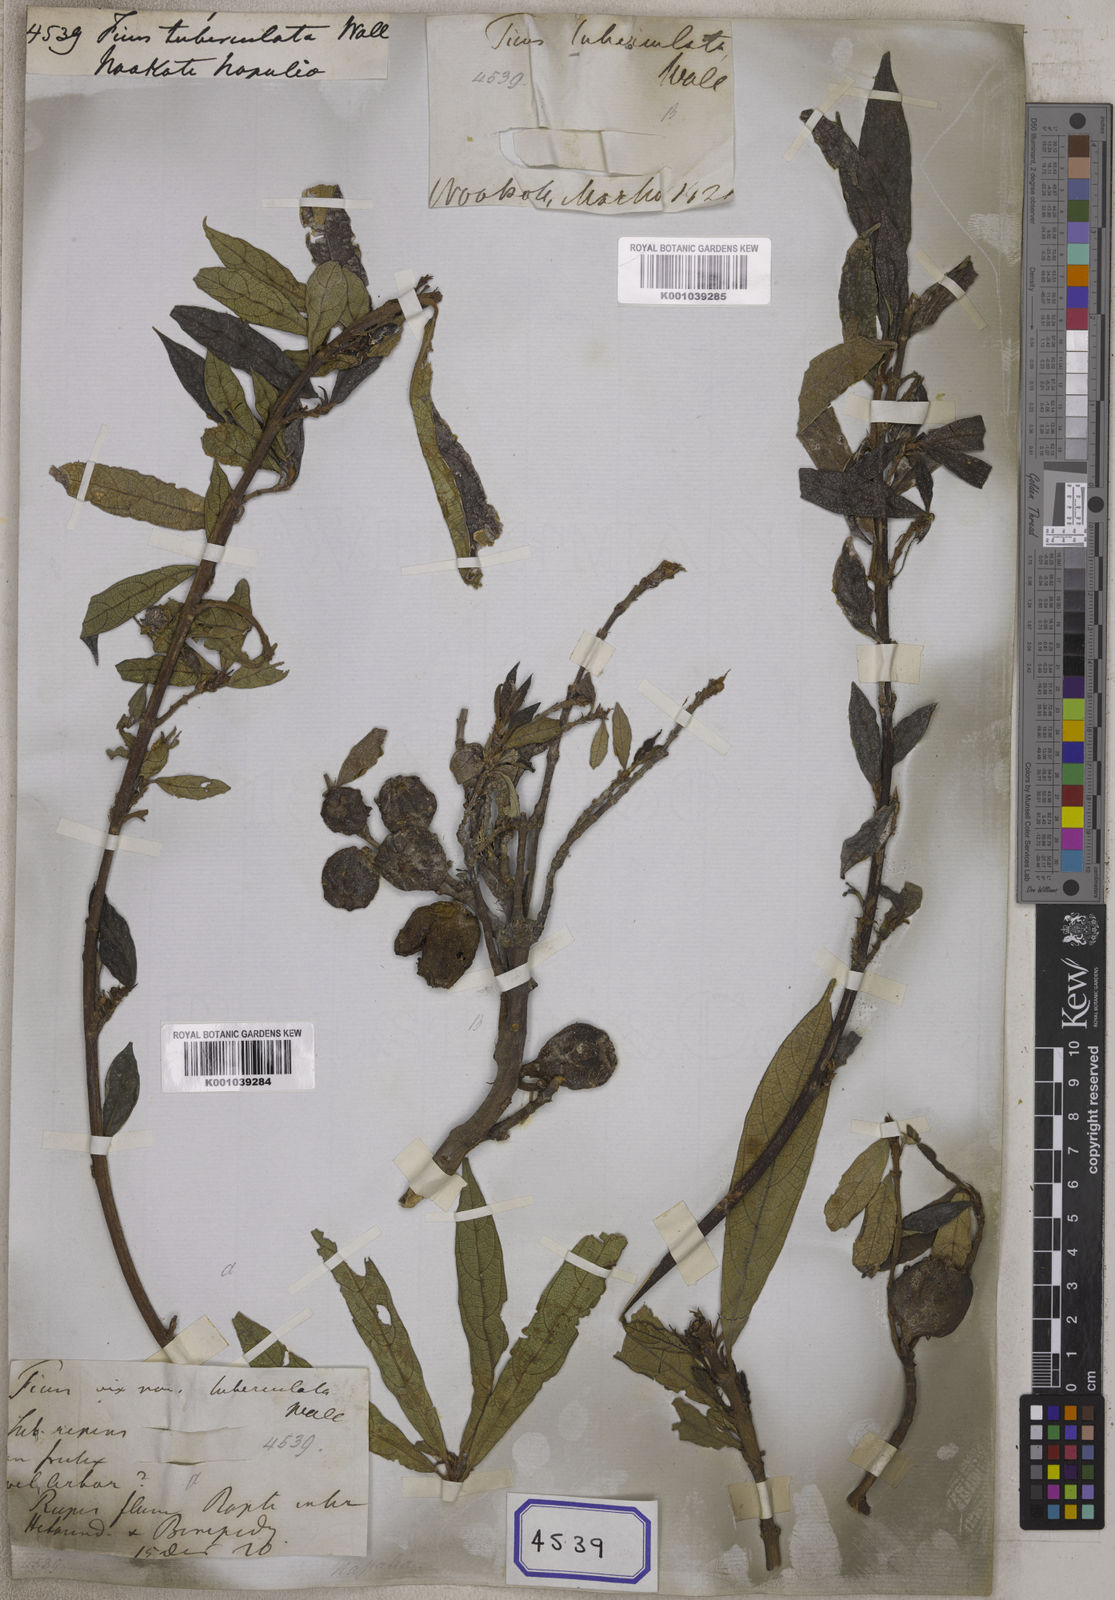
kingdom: Plantae
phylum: Tracheophyta
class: Magnoliopsida
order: Rosales
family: Moraceae
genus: Ficus
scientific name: Ficus
